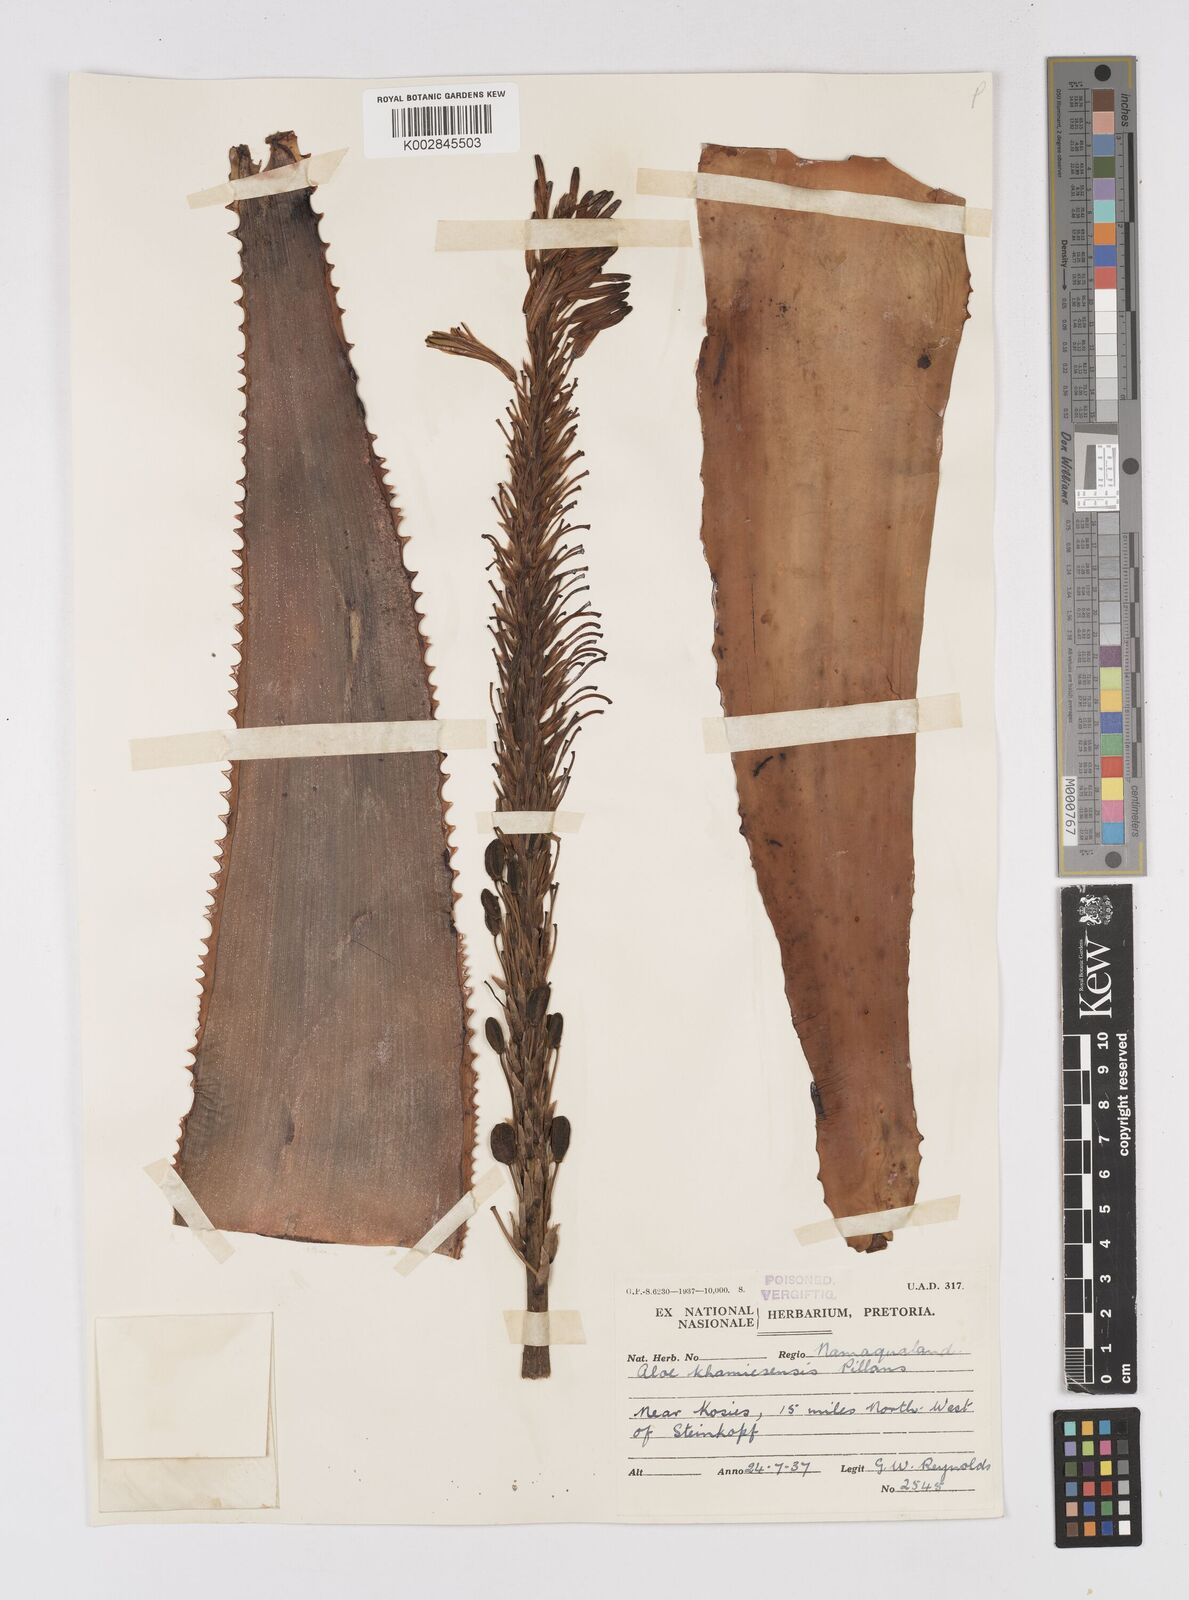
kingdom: Plantae
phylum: Tracheophyta
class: Liliopsida
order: Asparagales
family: Asphodelaceae
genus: Aloe
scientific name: Aloe khamiesensis
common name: Namaqua aloe
